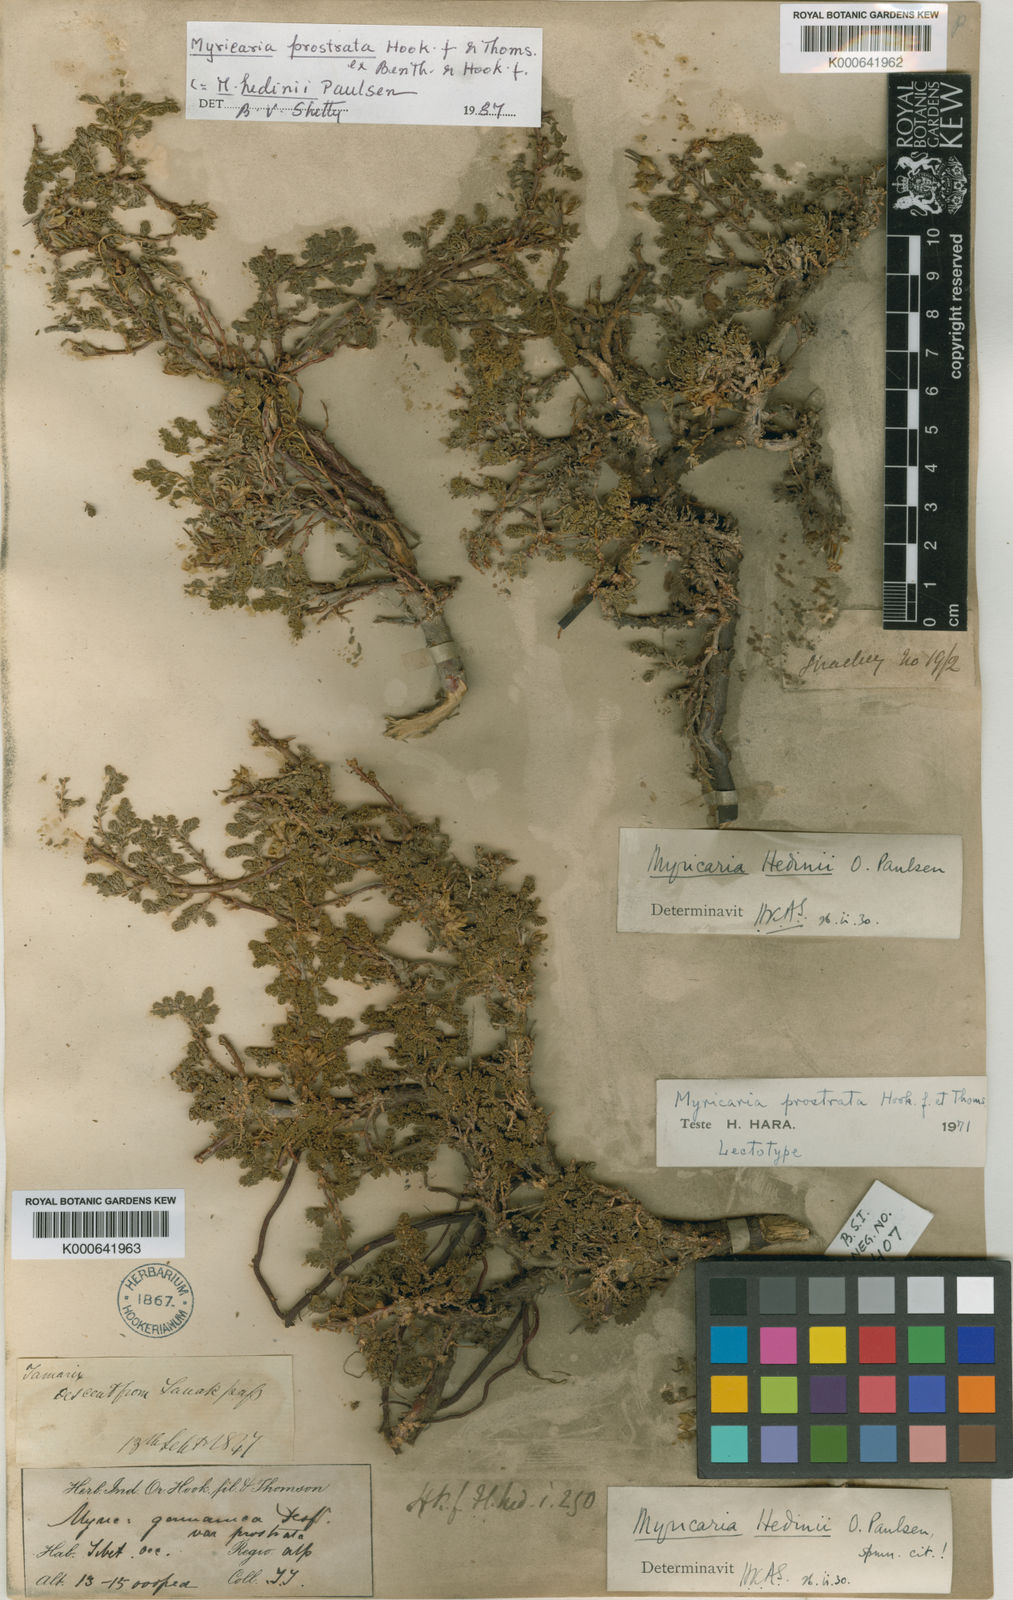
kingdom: Plantae
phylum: Tracheophyta
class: Magnoliopsida
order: Caryophyllales
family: Tamaricaceae
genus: Myricaria
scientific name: Myricaria prostrata
